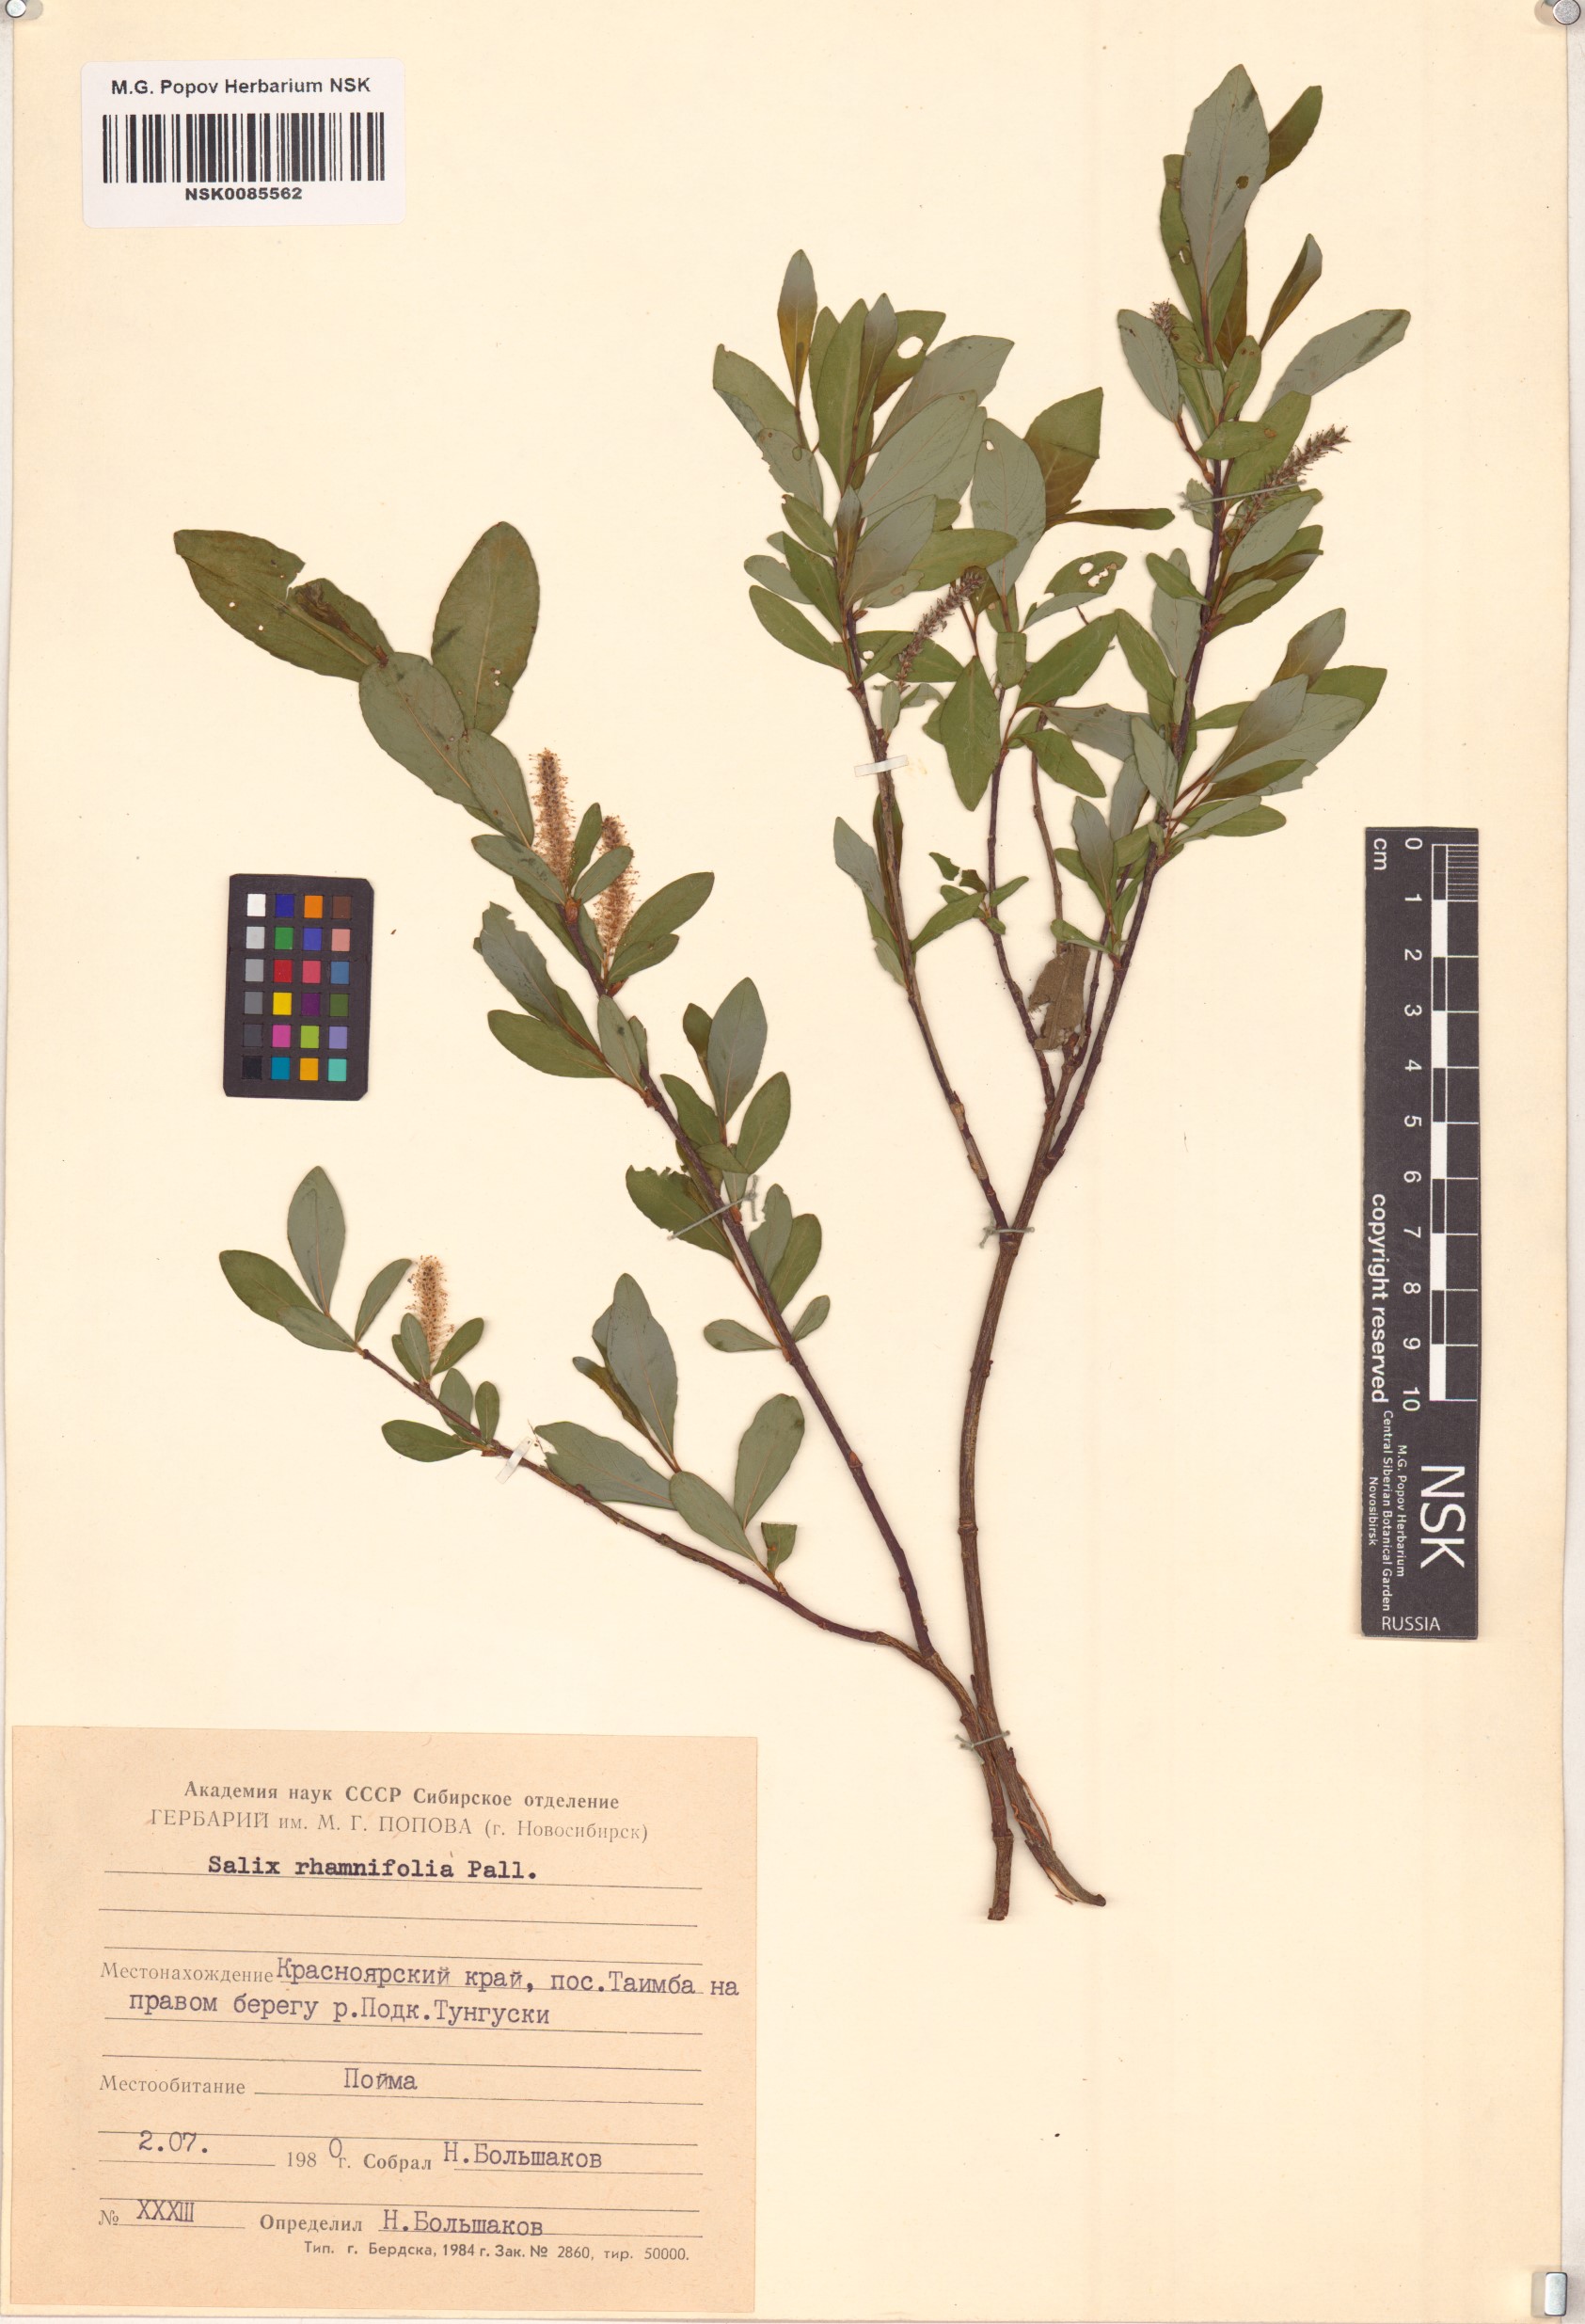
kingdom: Plantae
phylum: Tracheophyta
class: Magnoliopsida
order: Malpighiales
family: Salicaceae
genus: Salix
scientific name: Salix rhamnifolia
